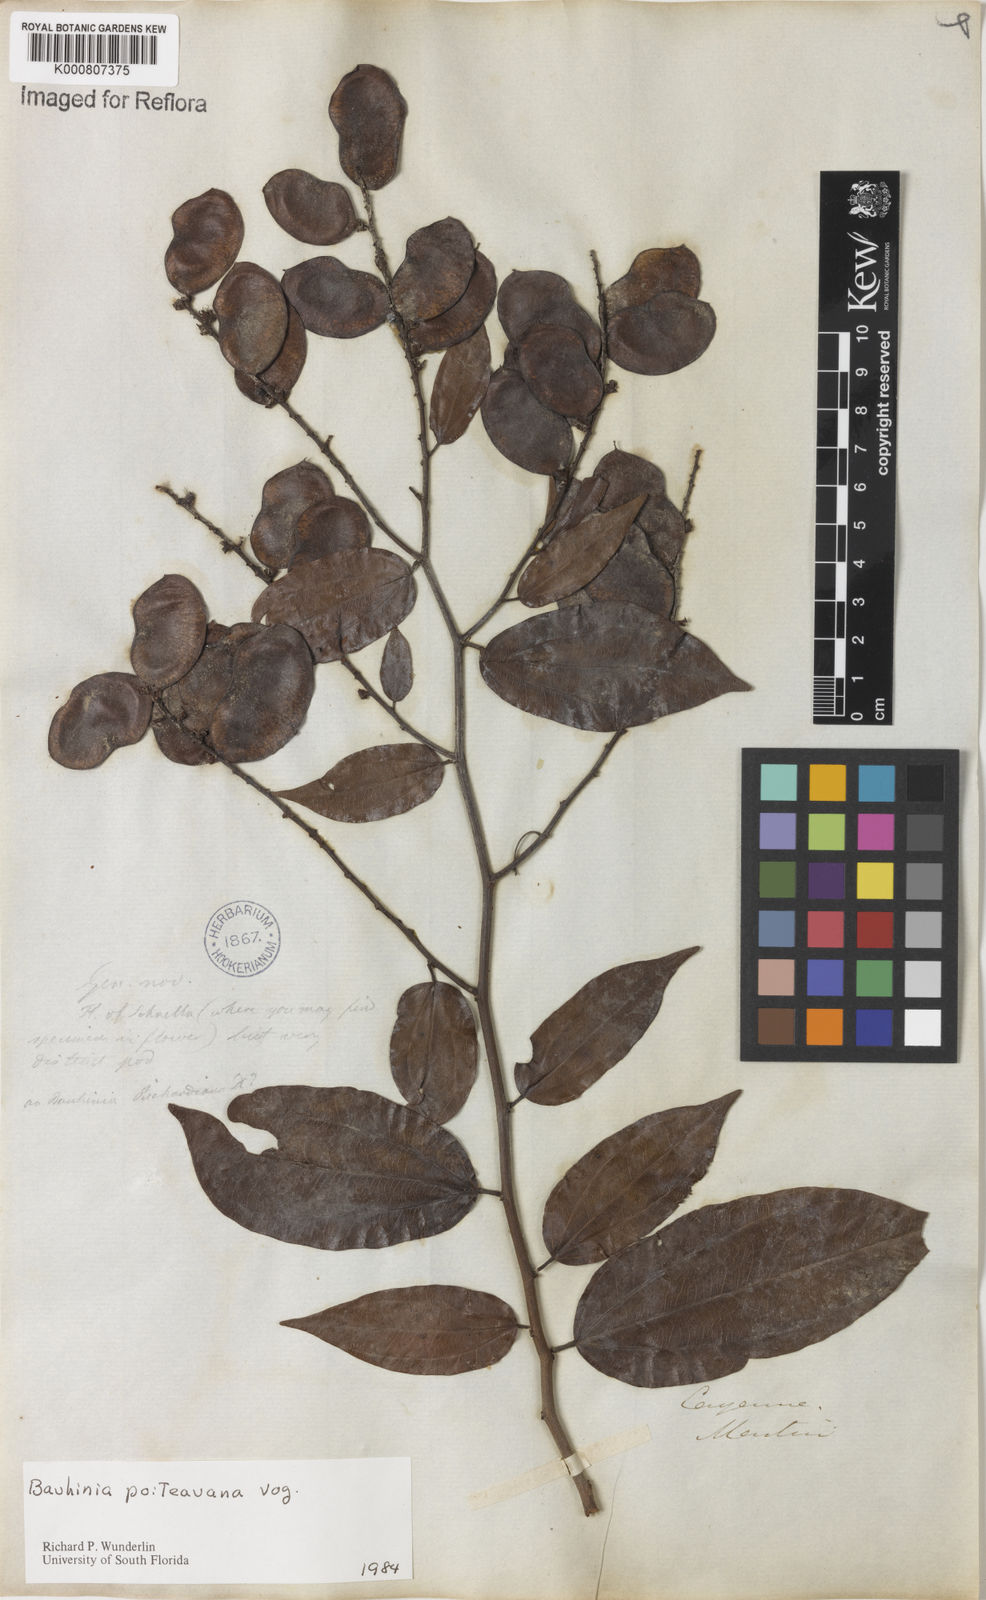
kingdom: Plantae
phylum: Tracheophyta
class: Magnoliopsida
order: Fabales
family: Fabaceae
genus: Schnella
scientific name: Schnella poiteauana
